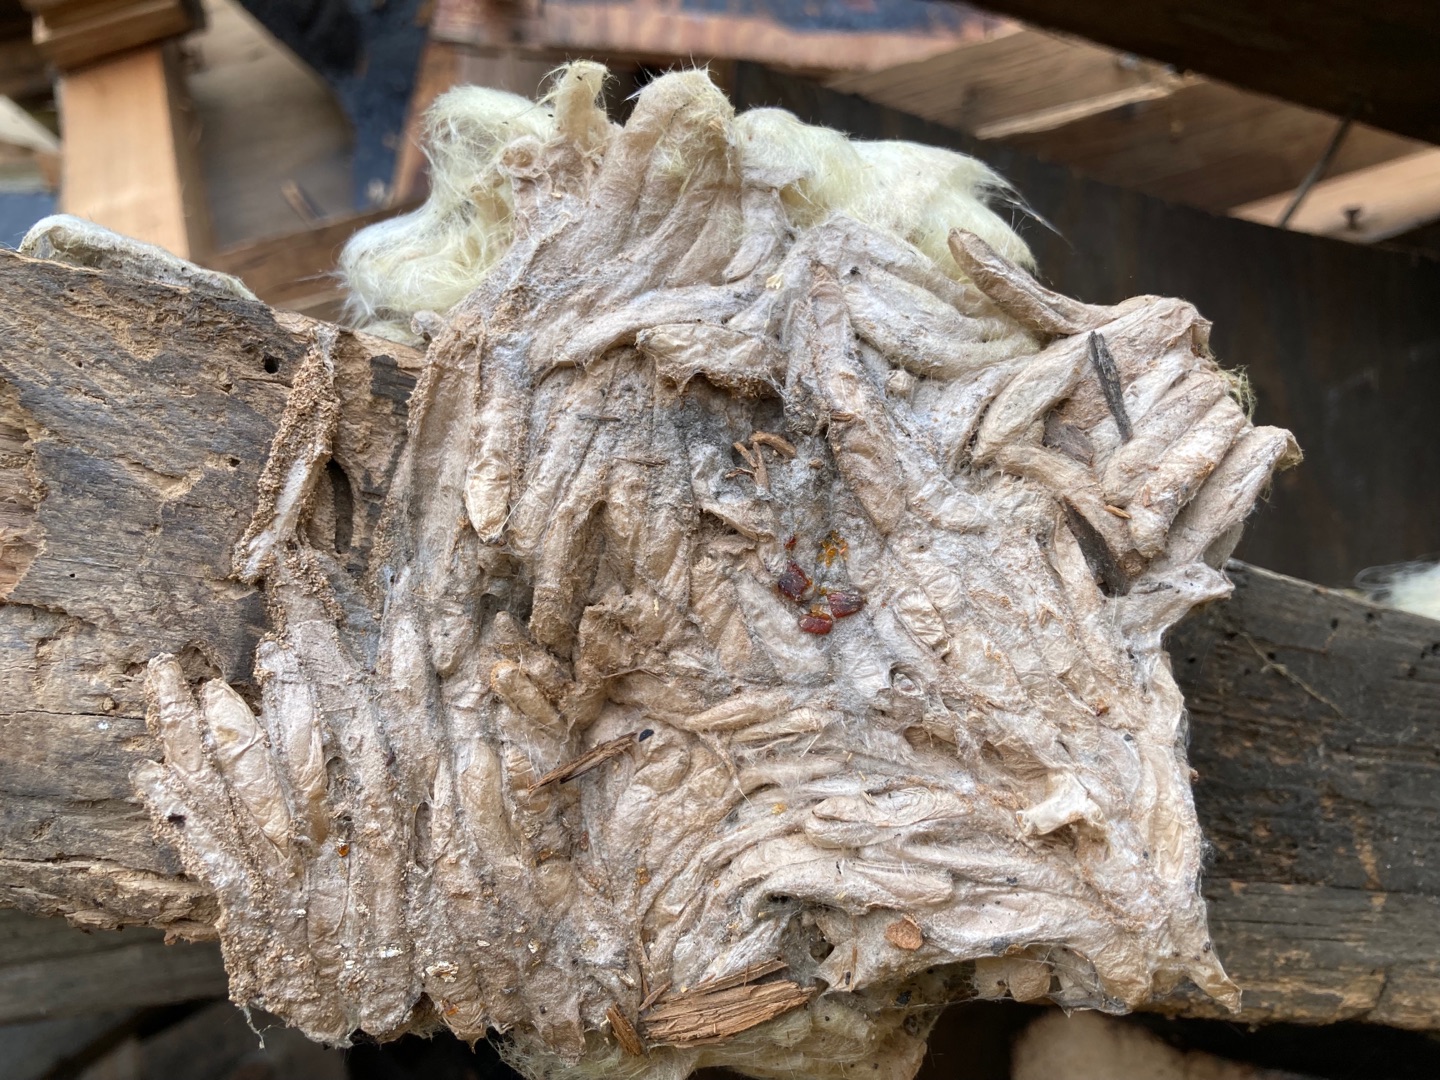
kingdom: Animalia
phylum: Arthropoda
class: Insecta
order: Lepidoptera
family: Pyralidae
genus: Aphomia
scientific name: Aphomia sociella
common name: Humlevoksmøl
